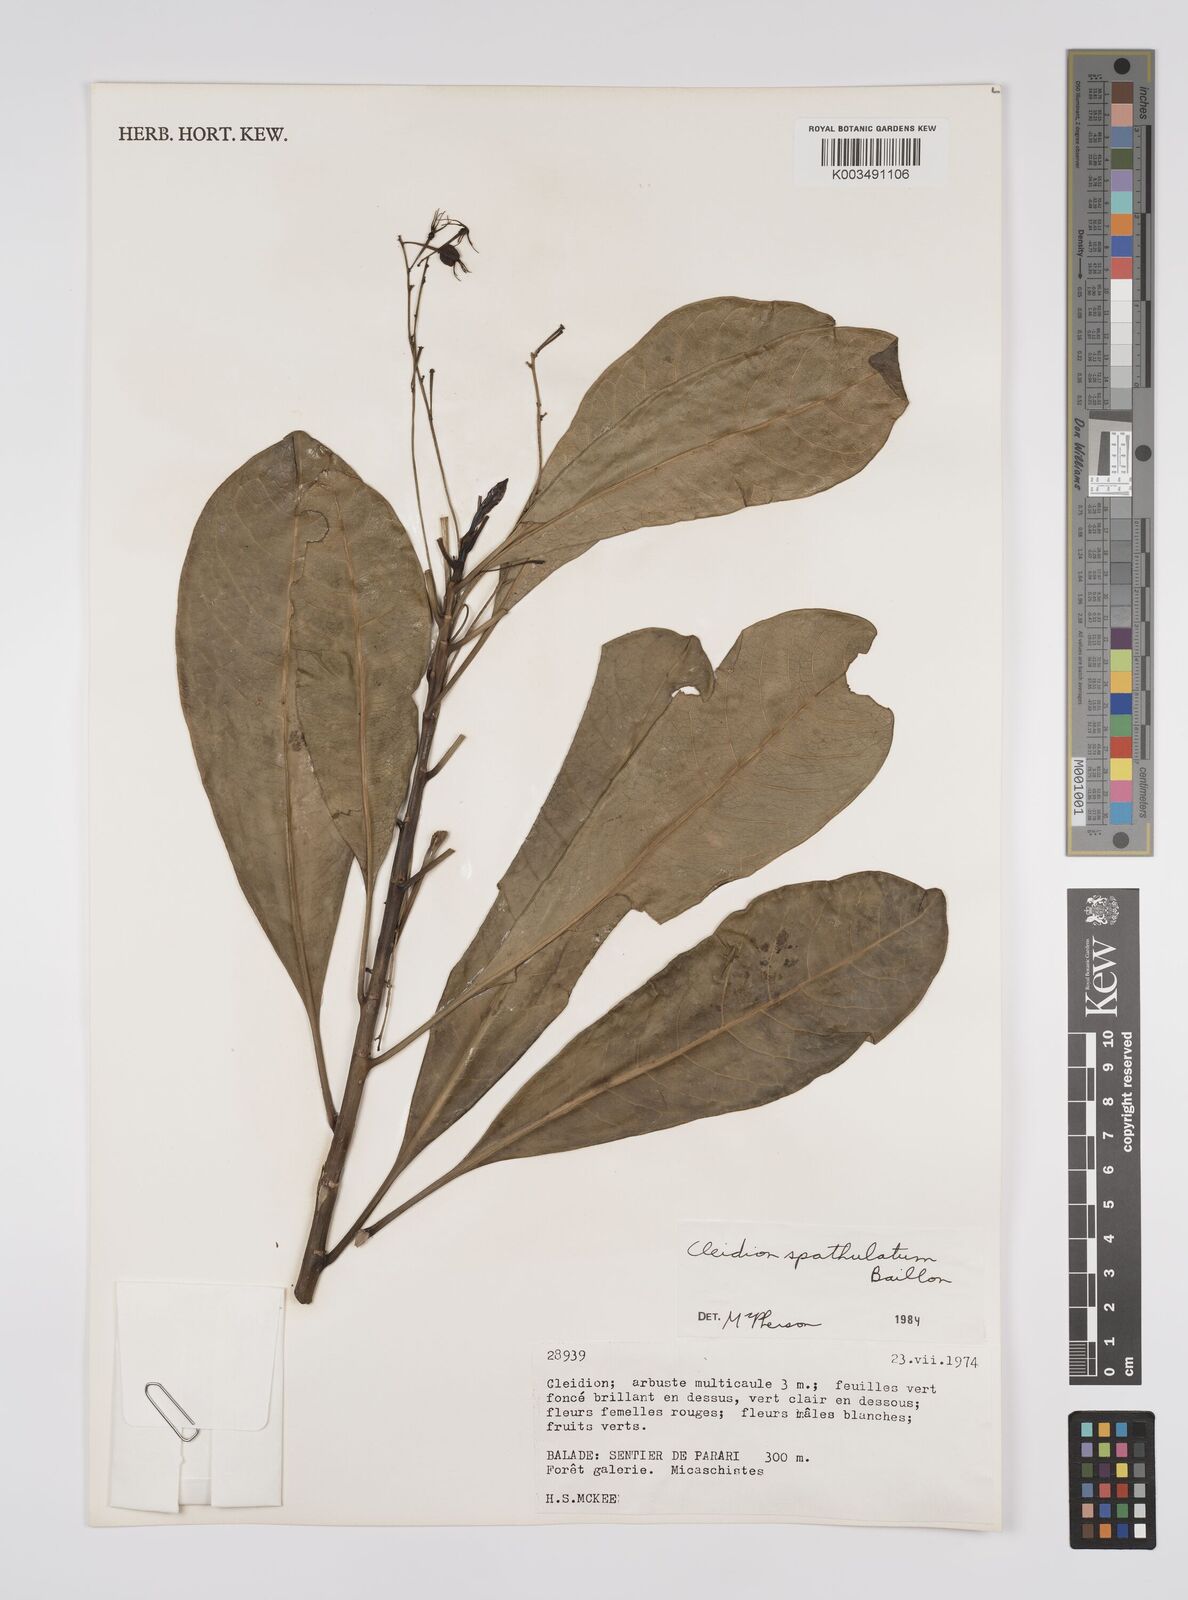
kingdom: Plantae
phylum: Tracheophyta
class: Magnoliopsida
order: Malpighiales
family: Euphorbiaceae
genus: Cleidion
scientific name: Cleidion spathulatum
